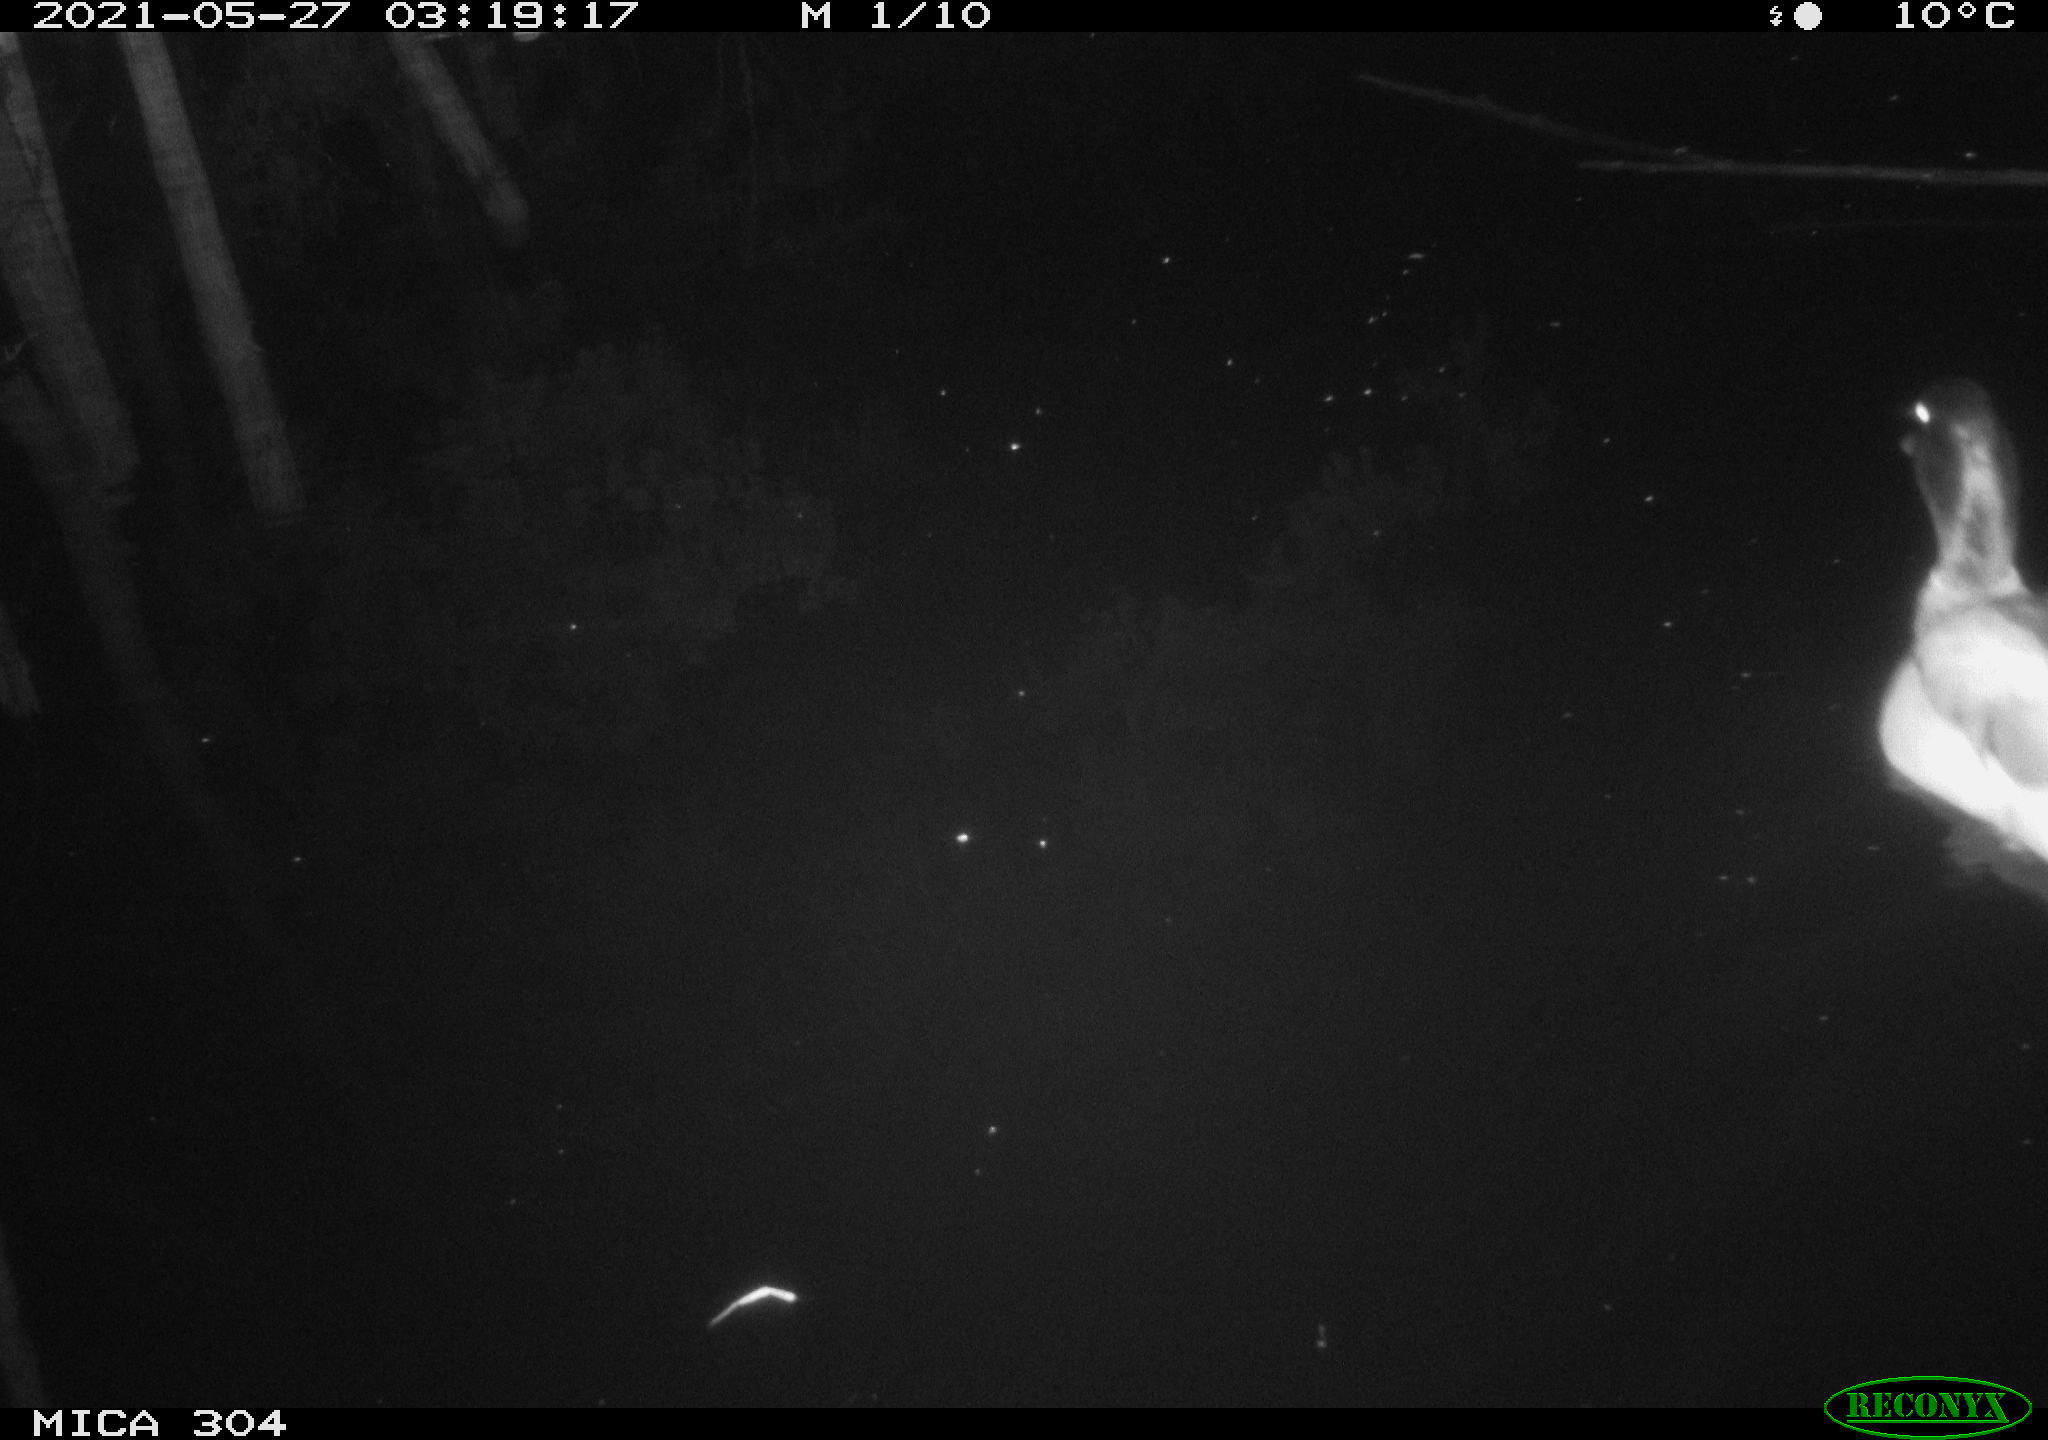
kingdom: Animalia
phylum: Chordata
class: Aves
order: Anseriformes
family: Anatidae
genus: Anas
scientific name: Anas platyrhynchos
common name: Mallard
